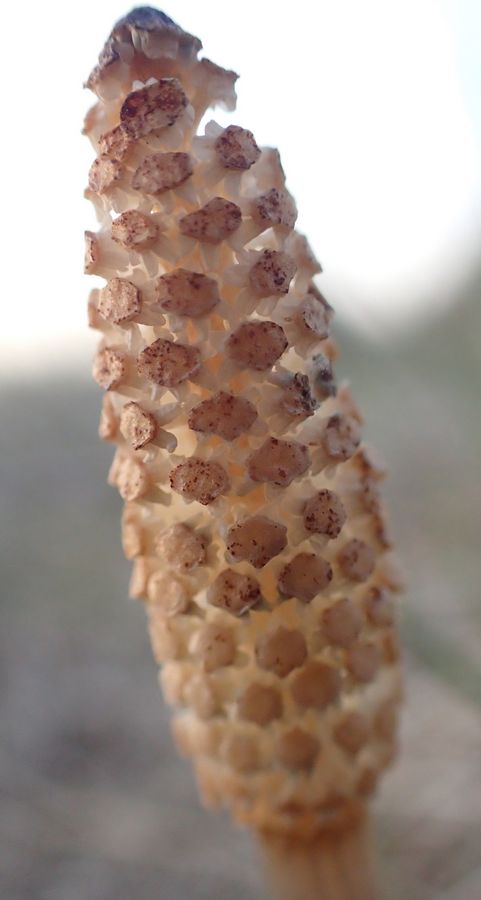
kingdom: Plantae
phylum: Tracheophyta
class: Polypodiopsida
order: Equisetales
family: Equisetaceae
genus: Equisetum
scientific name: Equisetum arvense
